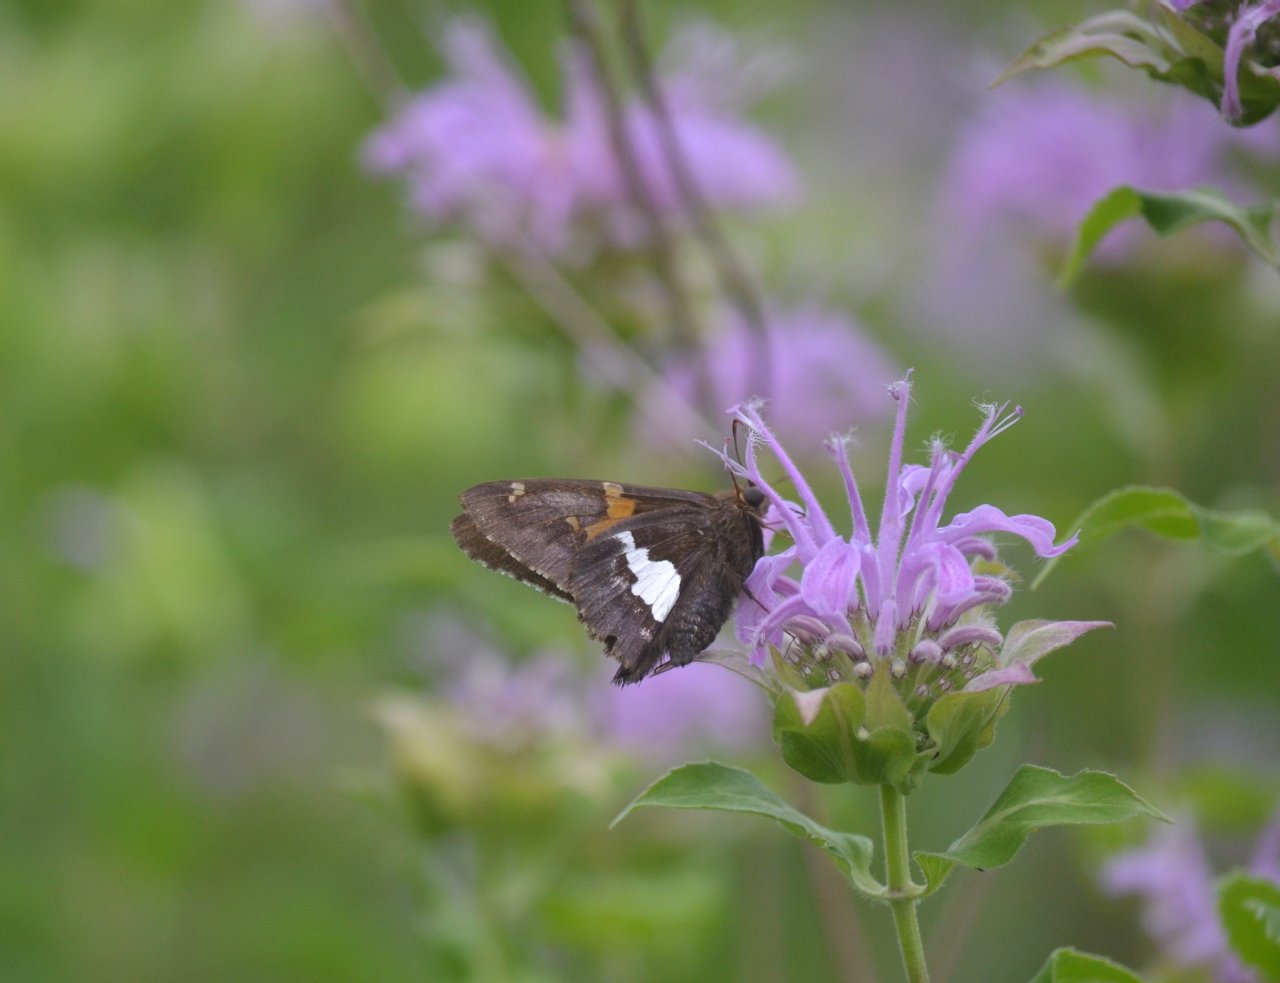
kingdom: Animalia
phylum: Arthropoda
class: Insecta
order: Lepidoptera
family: Hesperiidae
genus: Epargyreus
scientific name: Epargyreus clarus
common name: Silver-spotted Skipper
